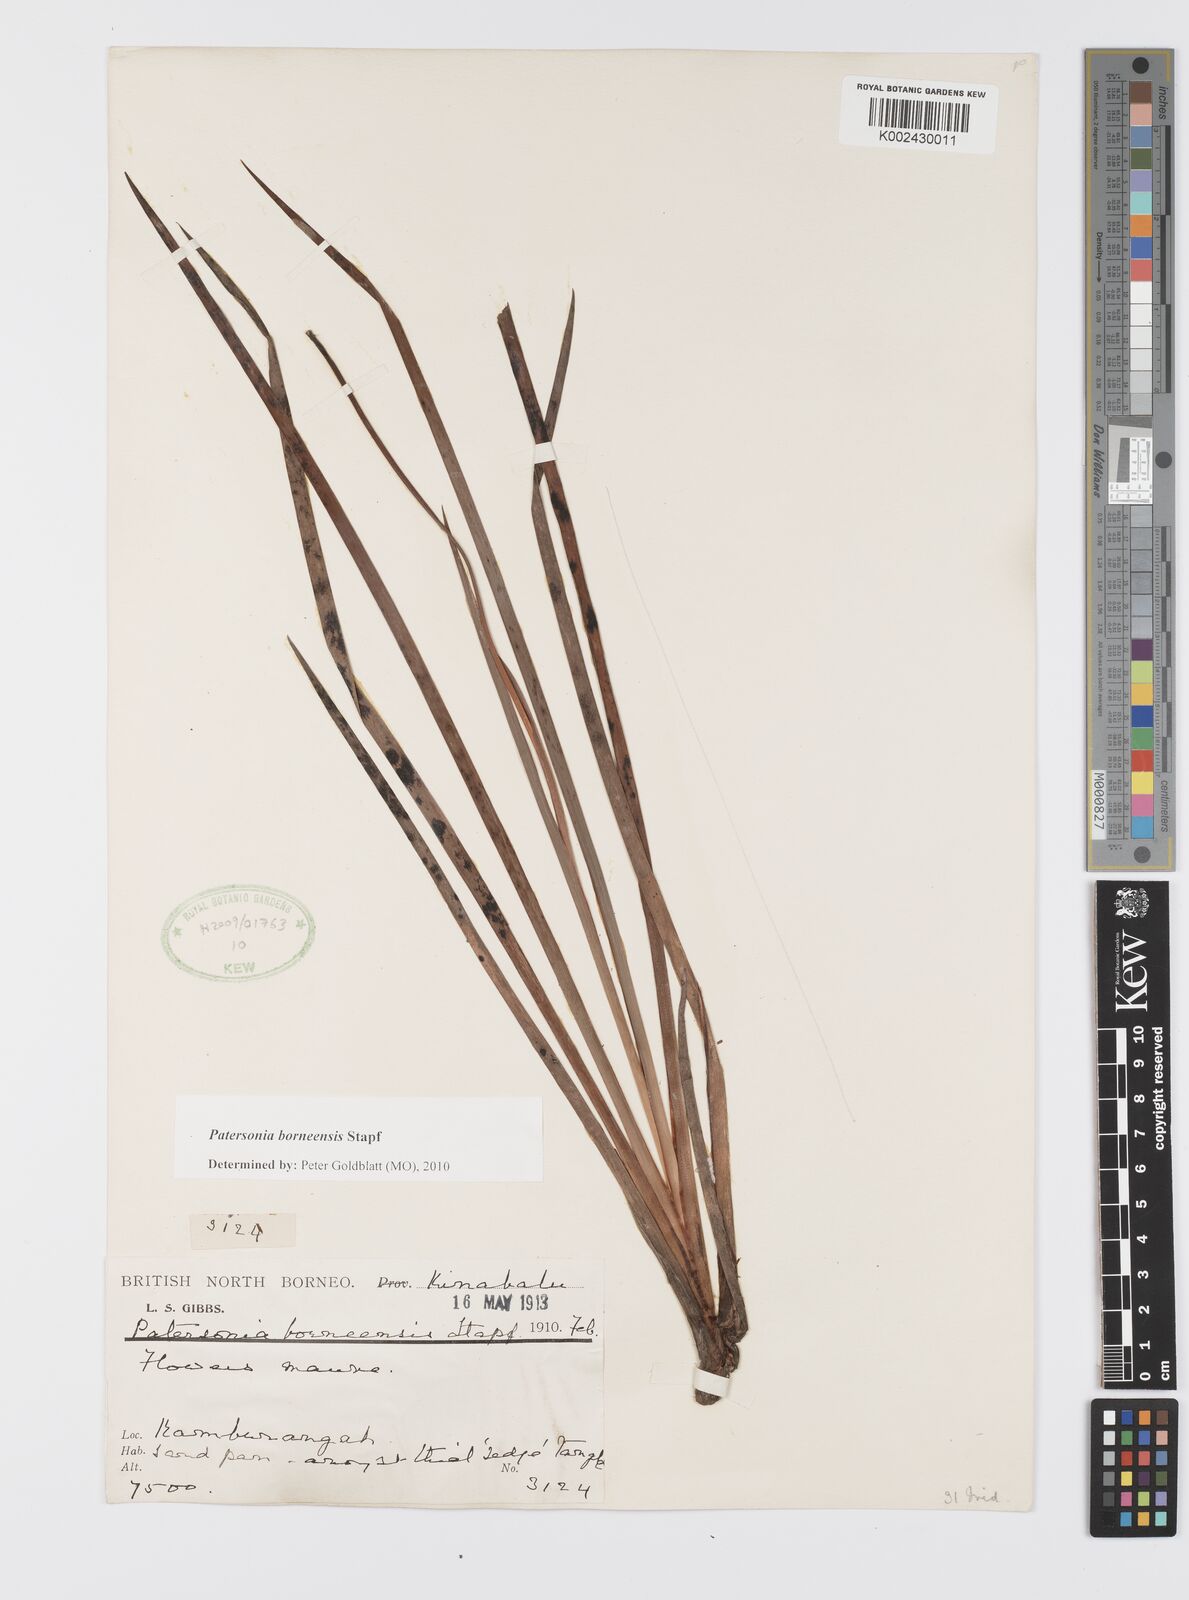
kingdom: Plantae
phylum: Tracheophyta
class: Liliopsida
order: Asparagales
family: Iridaceae
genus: Patersonia
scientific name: Patersonia borneensis
